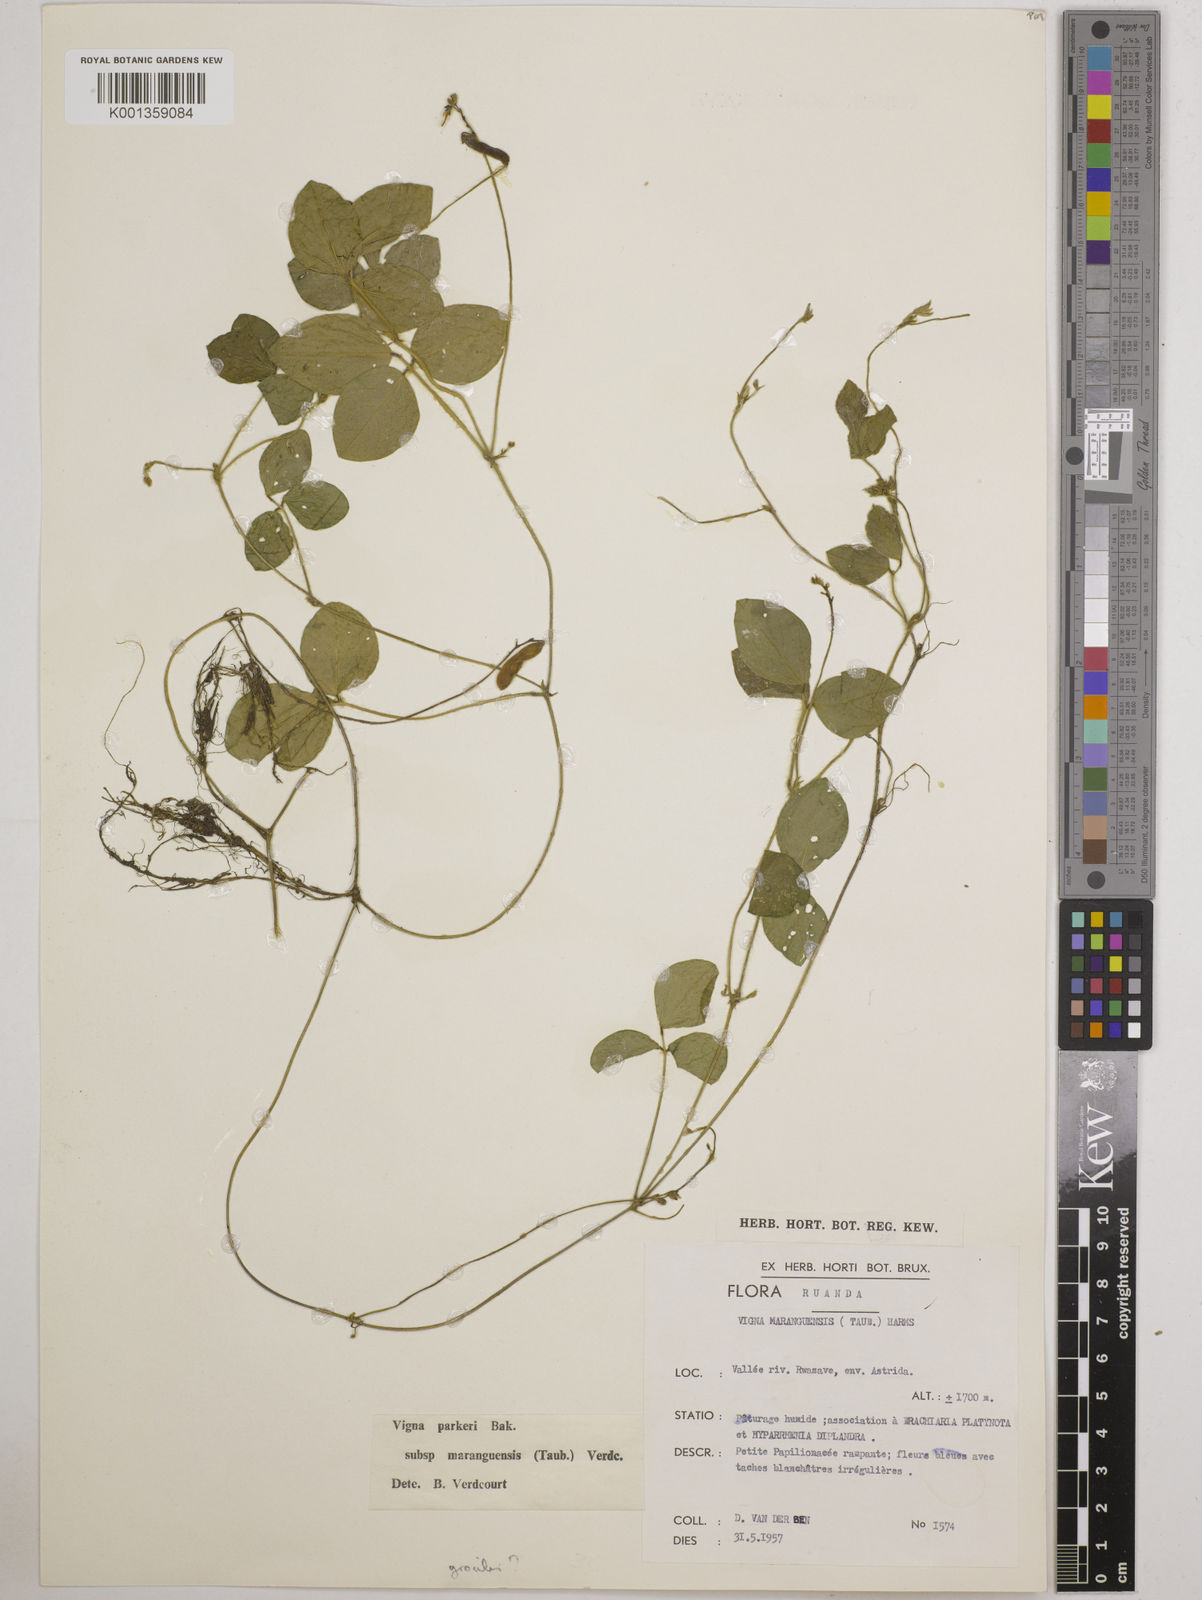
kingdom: Plantae
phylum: Tracheophyta
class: Magnoliopsida
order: Fabales
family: Fabaceae
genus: Vigna
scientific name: Vigna
